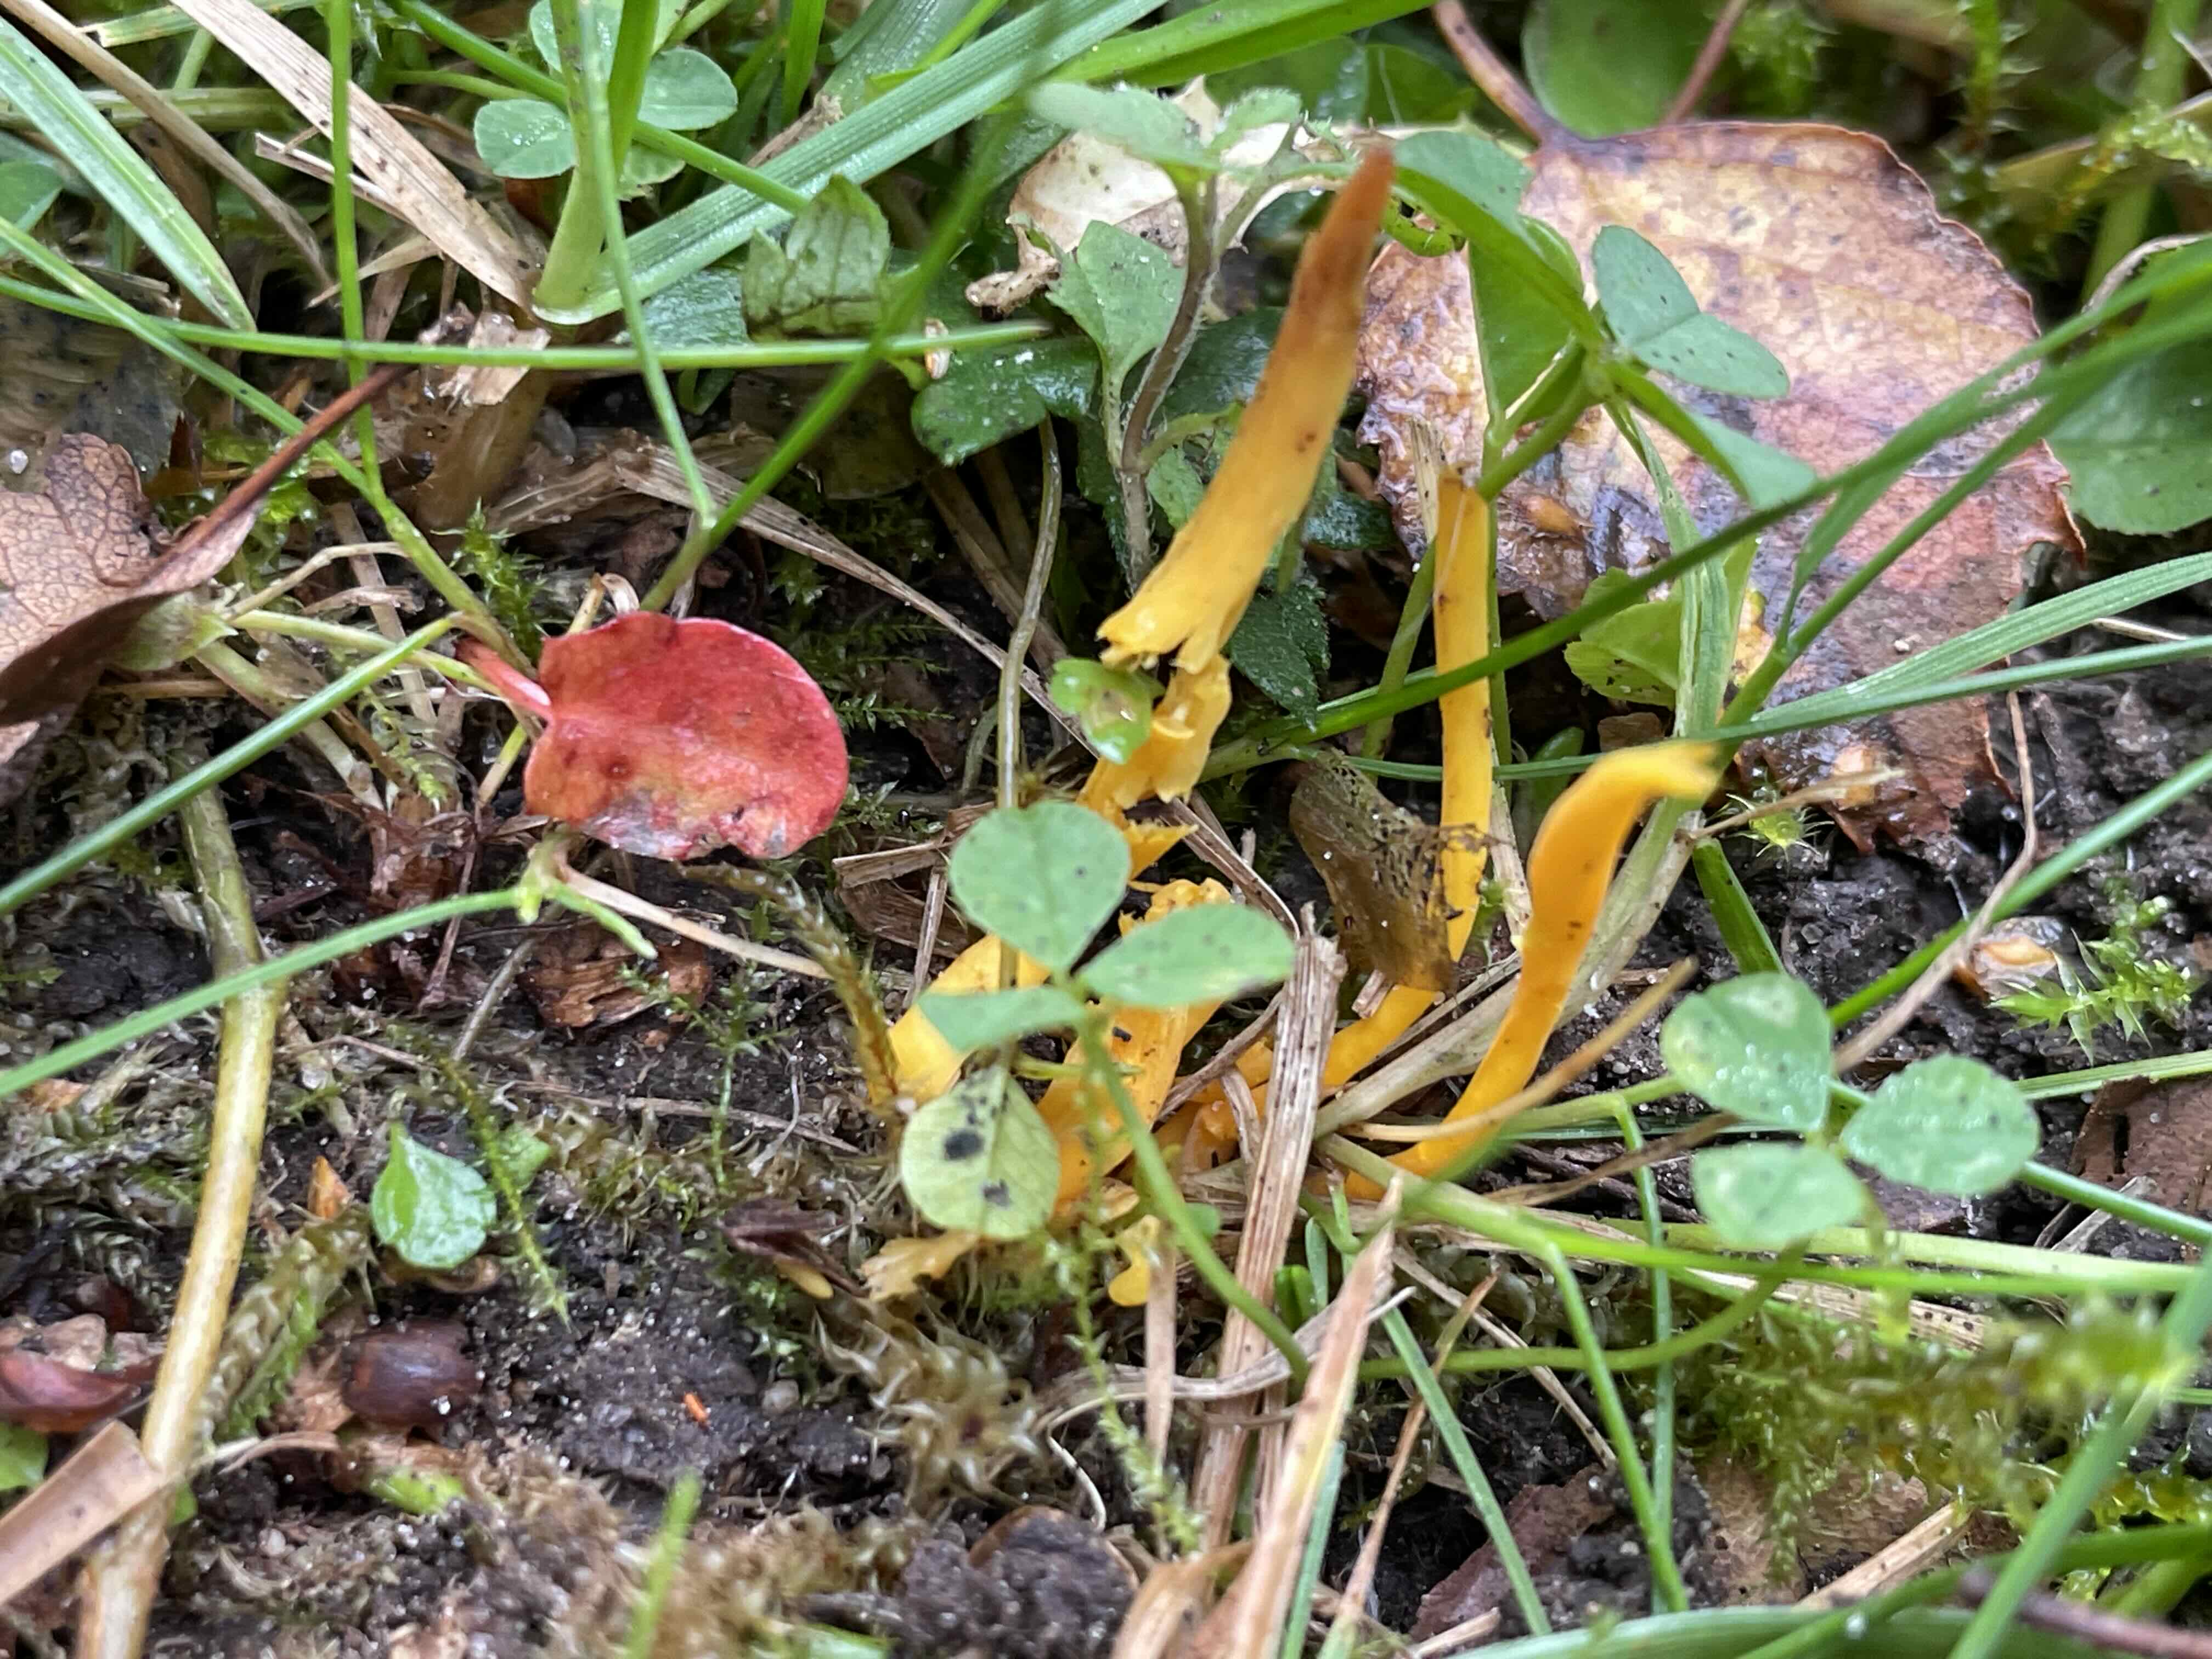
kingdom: Fungi
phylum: Basidiomycota
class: Agaricomycetes
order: Agaricales
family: Clavariaceae
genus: Clavulinopsis
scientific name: Clavulinopsis
